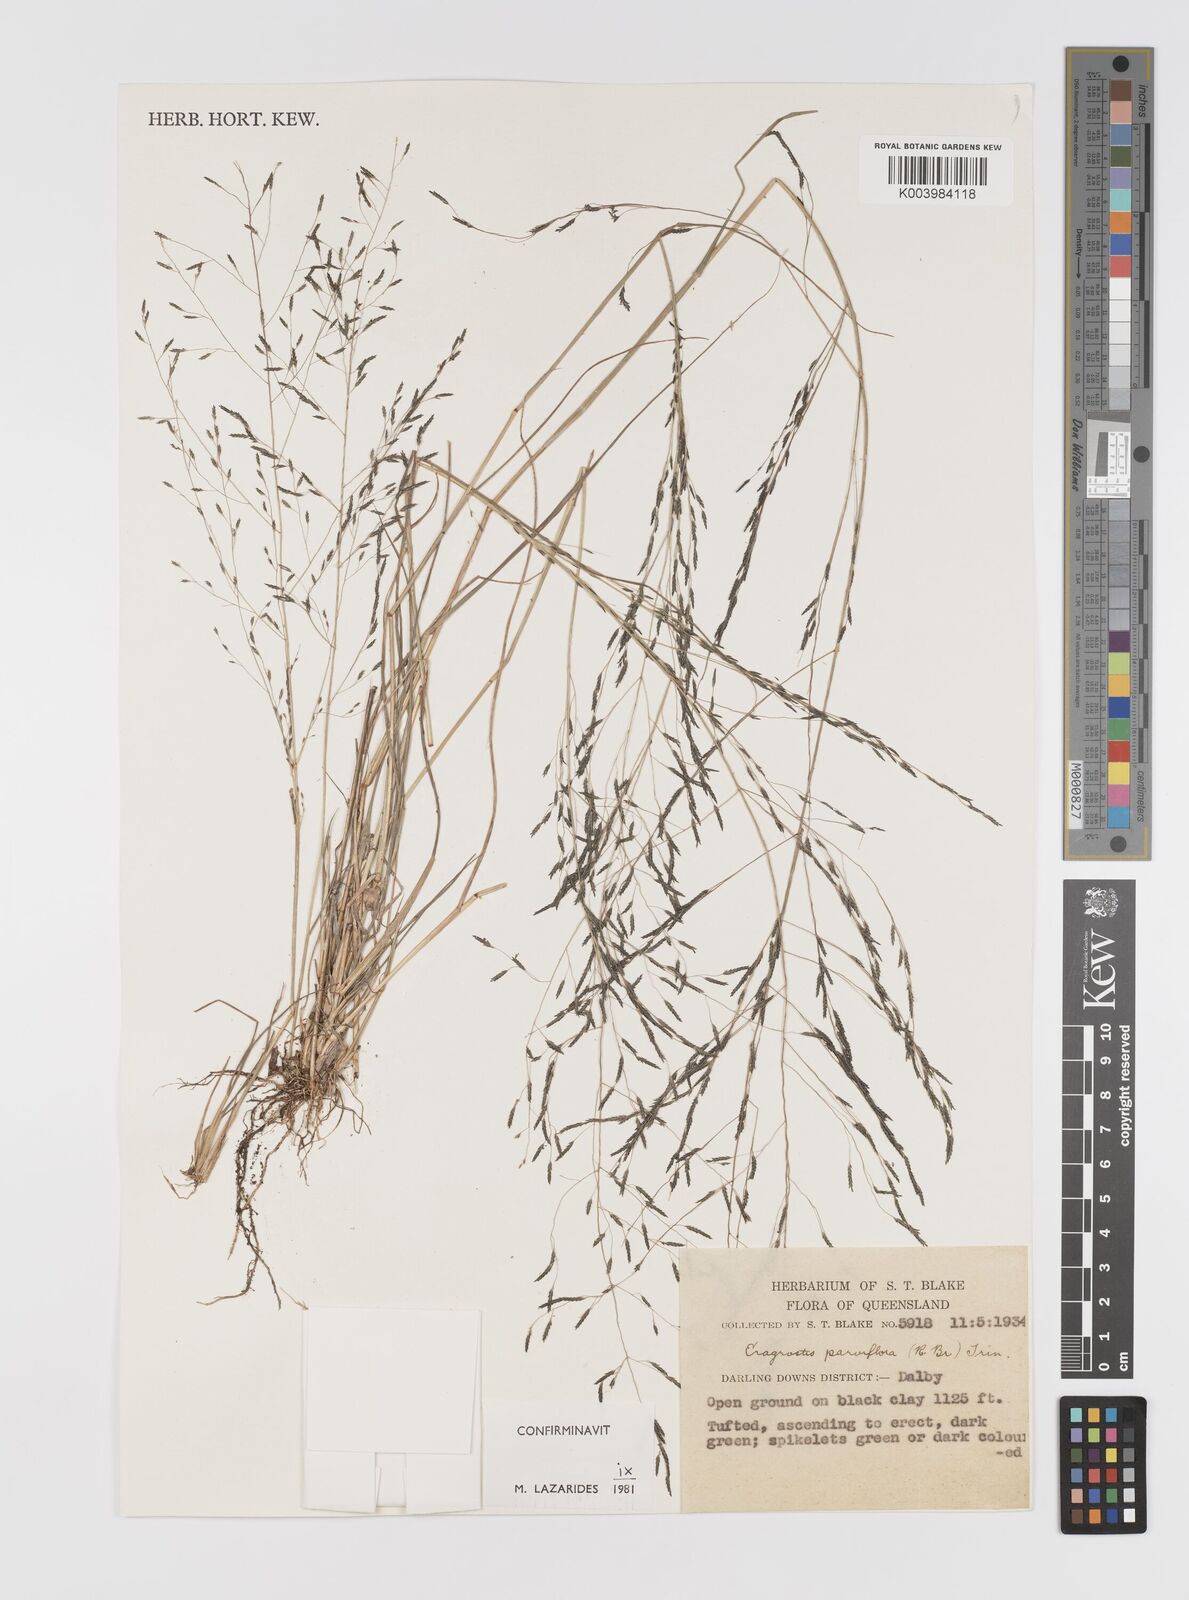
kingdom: Plantae
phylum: Tracheophyta
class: Liliopsida
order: Poales
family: Poaceae
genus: Eragrostis
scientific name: Eragrostis parviflora
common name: Weeping love-grass
